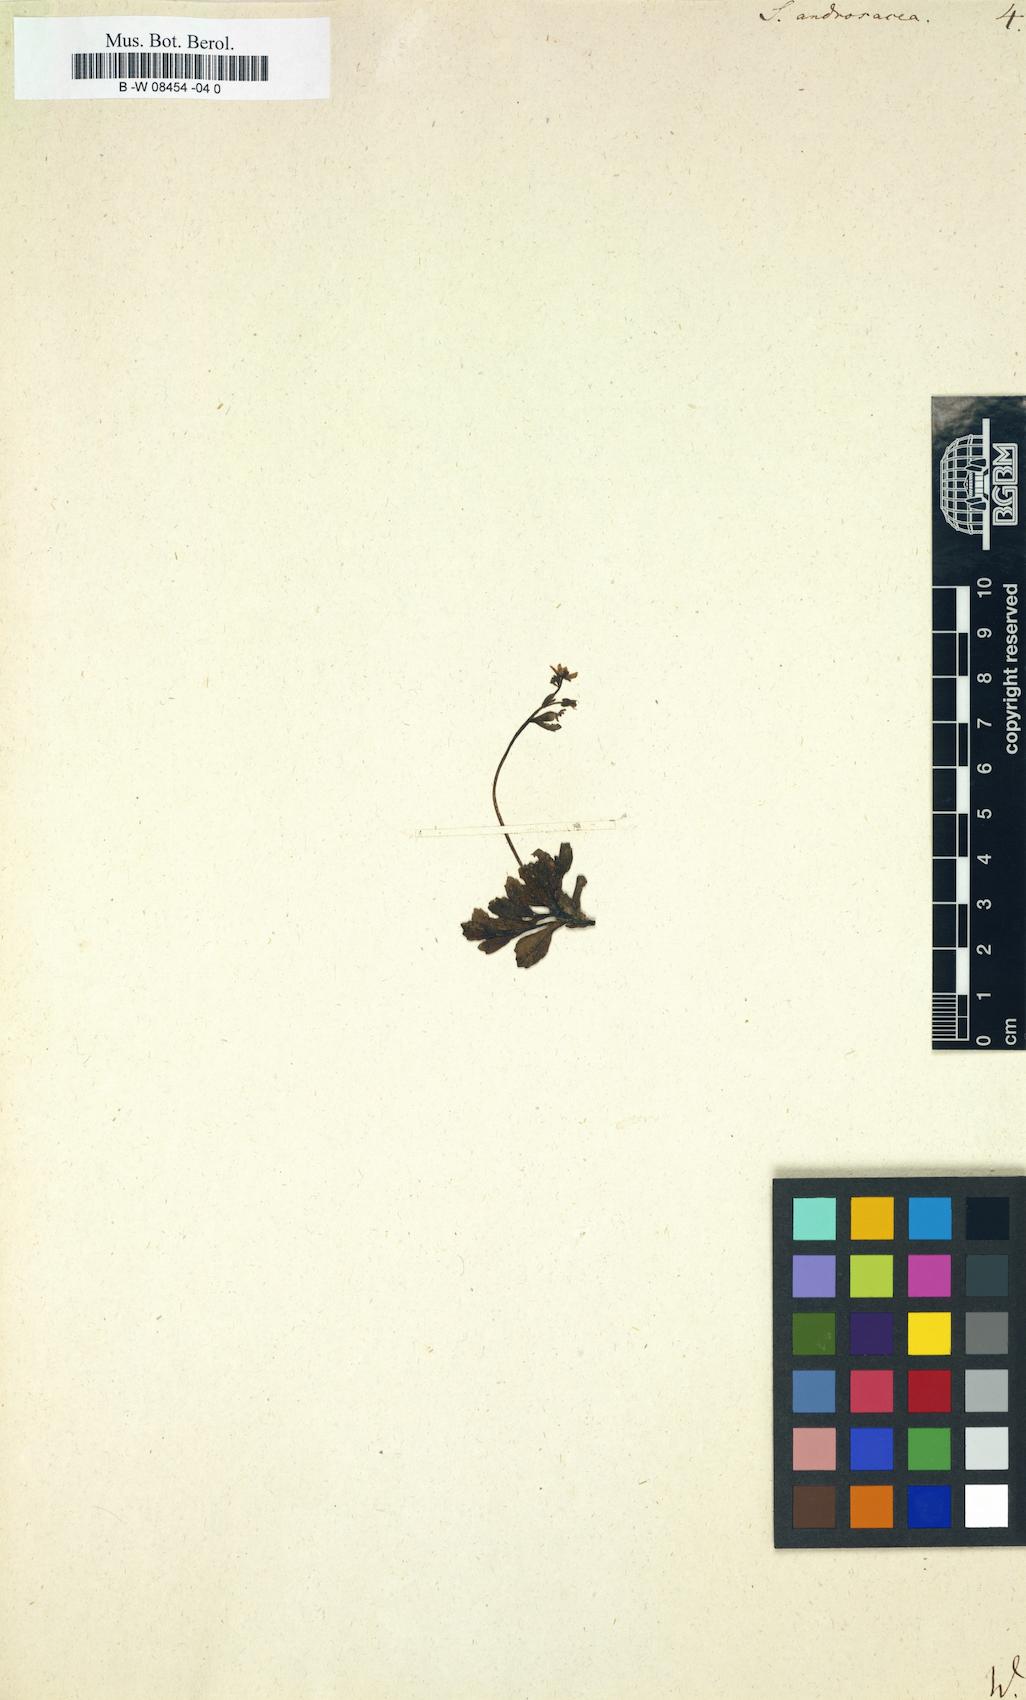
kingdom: Plantae
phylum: Tracheophyta
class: Magnoliopsida
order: Saxifragales
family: Saxifragaceae
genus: Saxifraga
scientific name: Saxifraga androsacea
